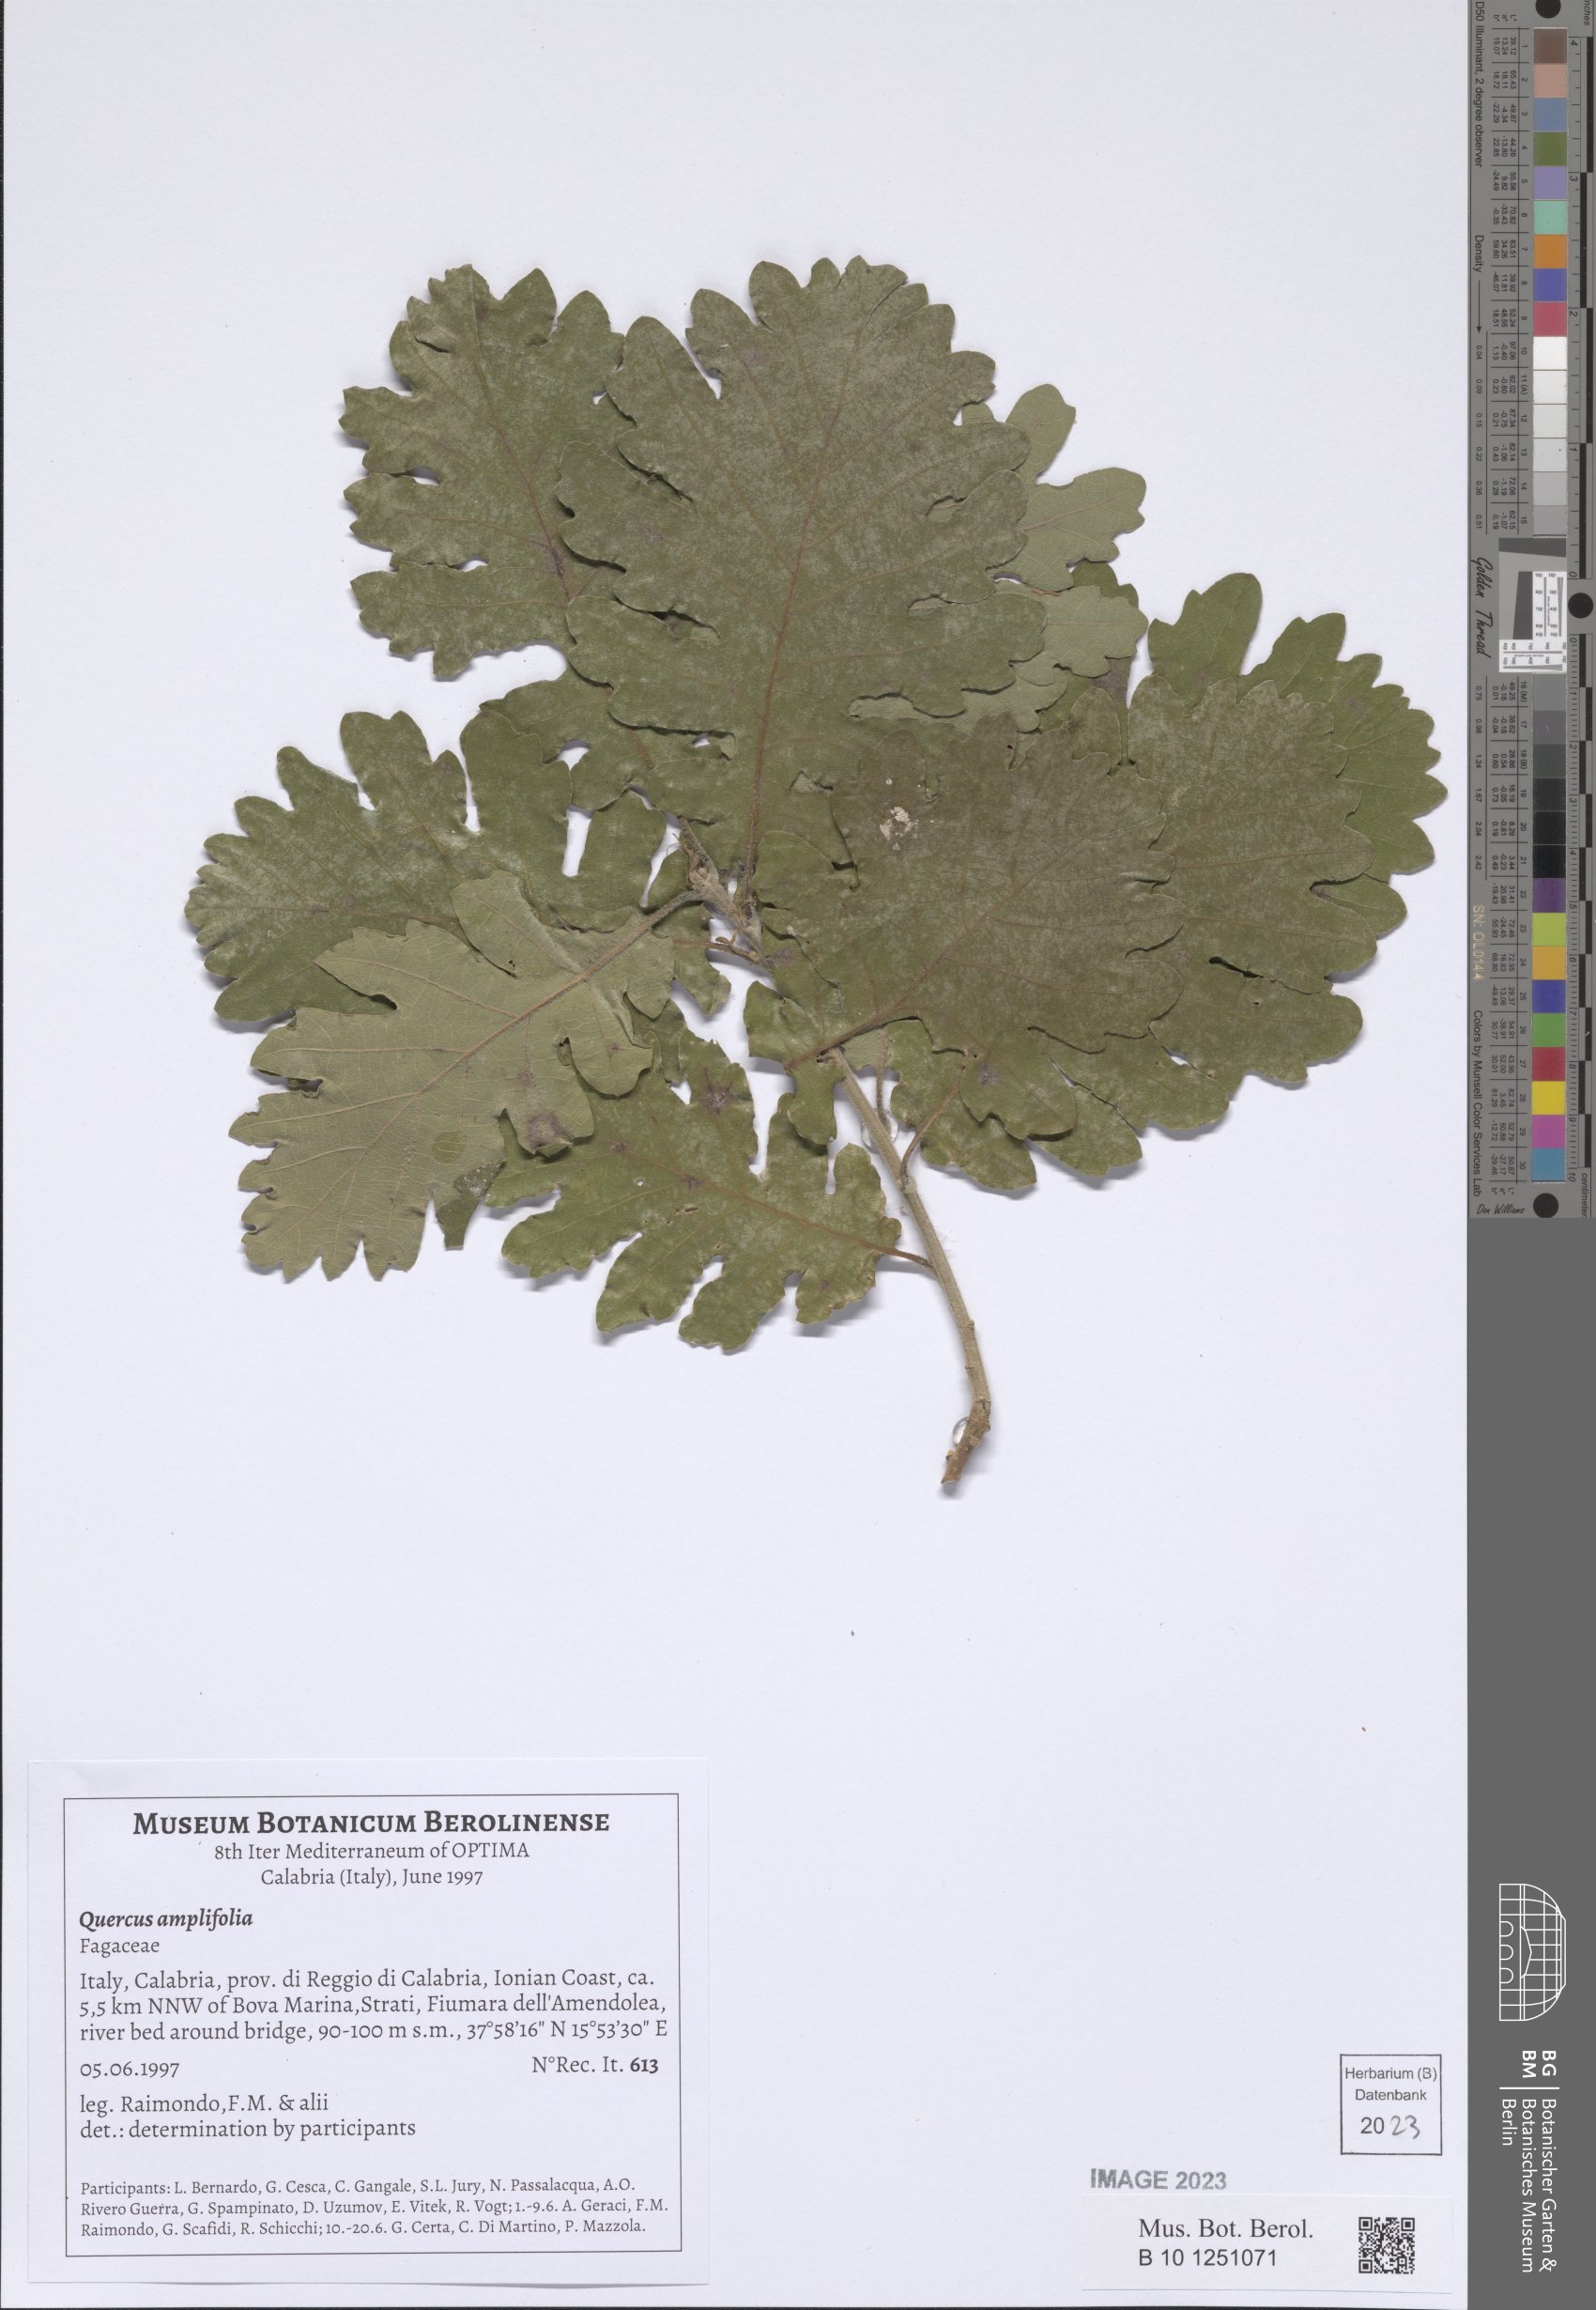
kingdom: Plantae
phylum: Tracheophyta
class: Magnoliopsida
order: Fagales
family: Fagaceae
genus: Quercus
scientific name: Quercus pubescens
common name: Downy oak
